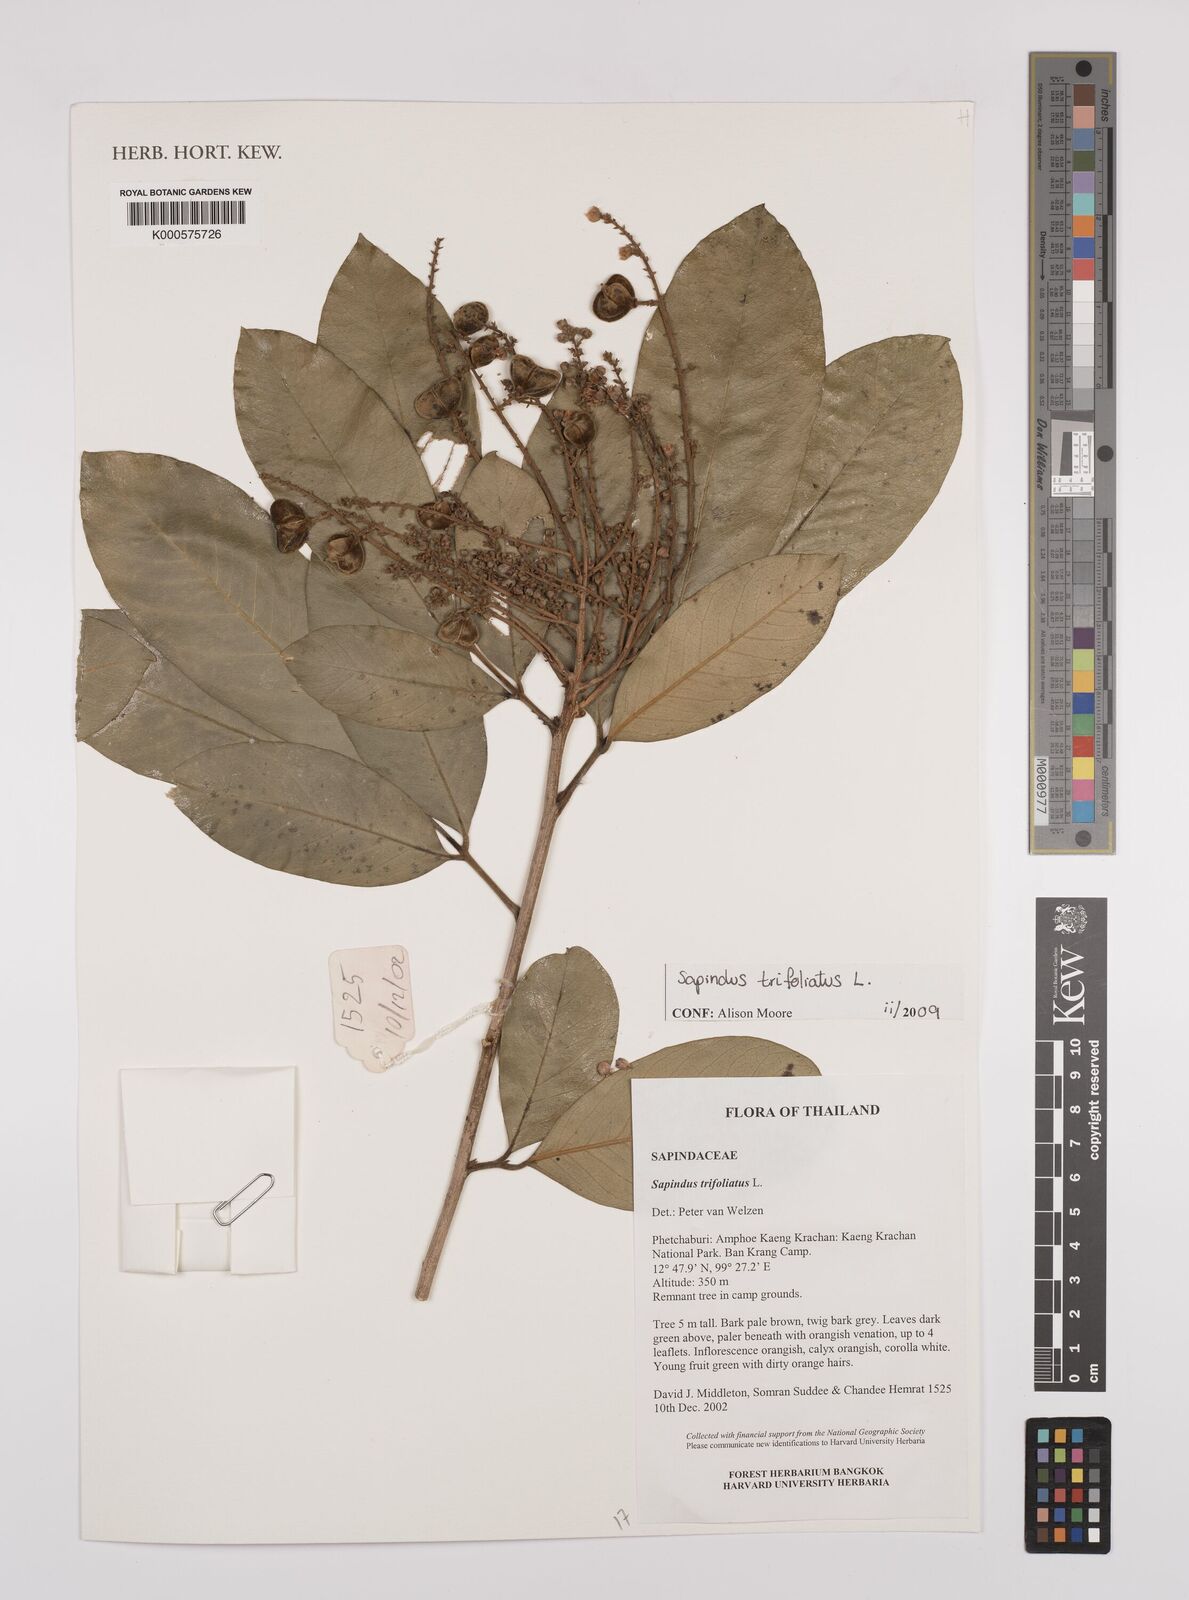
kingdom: Plantae
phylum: Tracheophyta
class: Magnoliopsida
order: Sapindales
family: Sapindaceae
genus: Sapindus
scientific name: Sapindus trifoliatus
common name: Three-leaf soapberry
